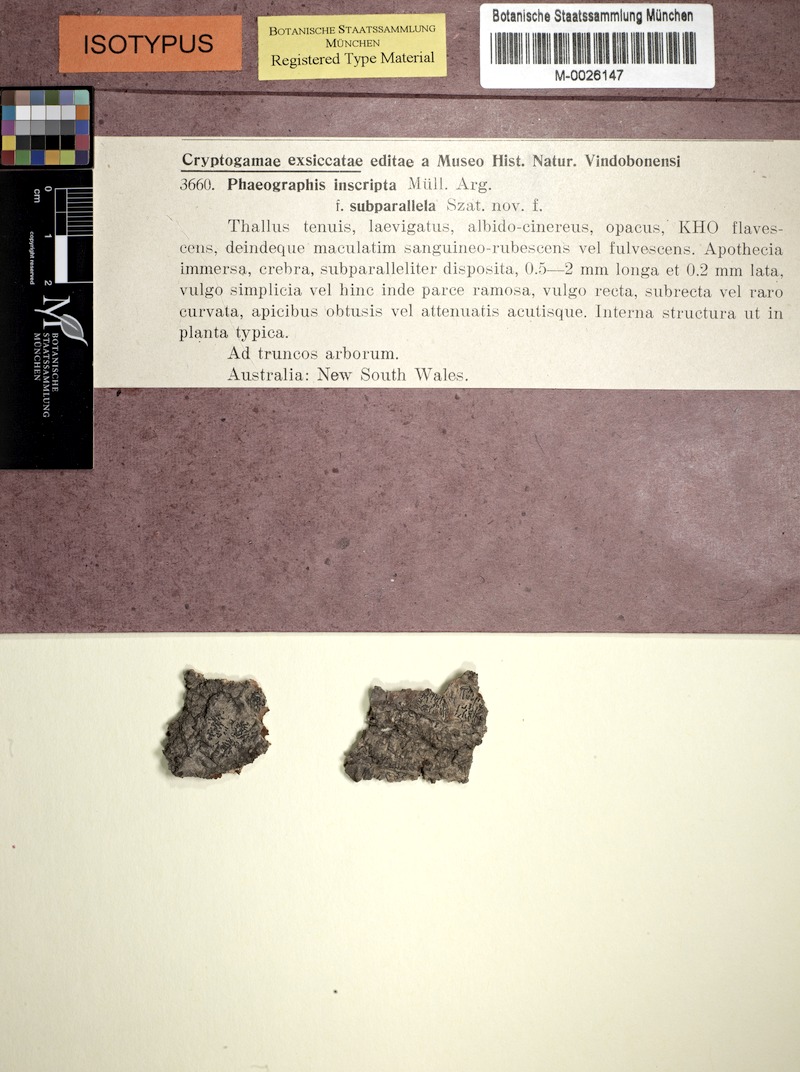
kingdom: Fungi
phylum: Ascomycota
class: Lecanoromycetes
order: Ostropales
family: Graphidaceae
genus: Halegrapha
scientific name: Halegrapha mucronata
